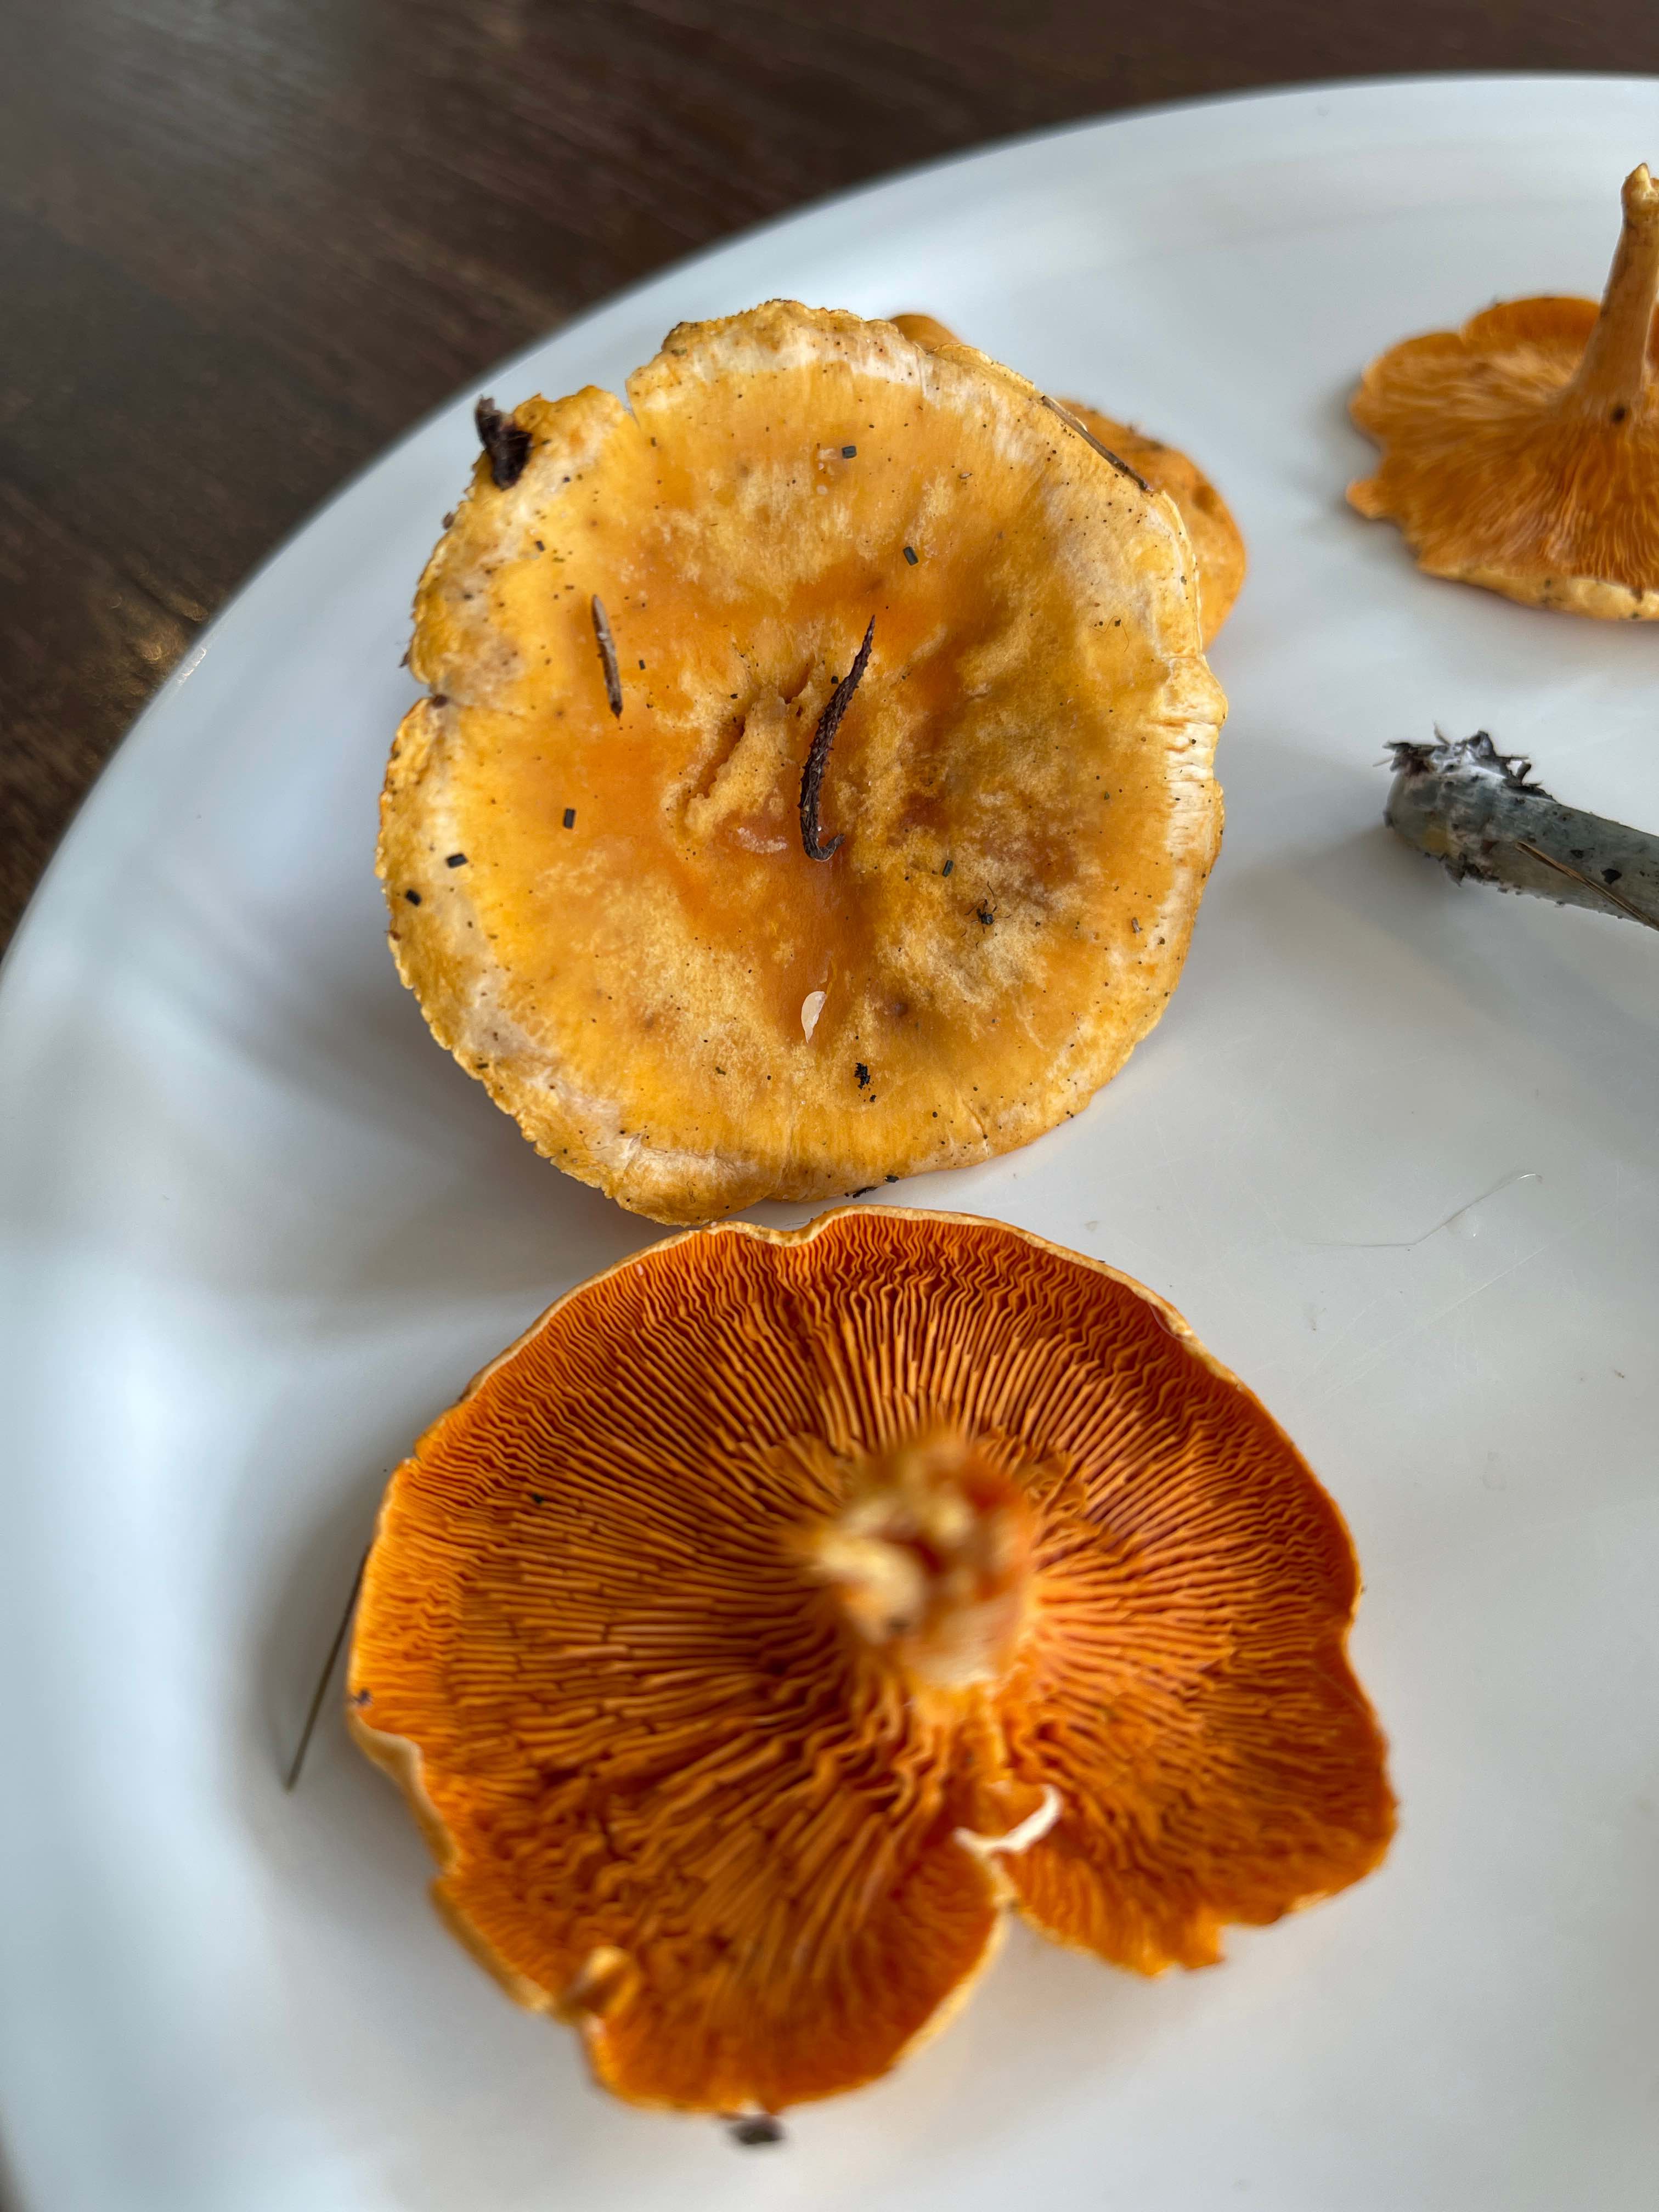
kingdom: Fungi
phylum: Basidiomycota
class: Agaricomycetes
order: Boletales
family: Hygrophoropsidaceae
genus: Hygrophoropsis
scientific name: Hygrophoropsis aurantiaca
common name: almindelig orangekantarel
